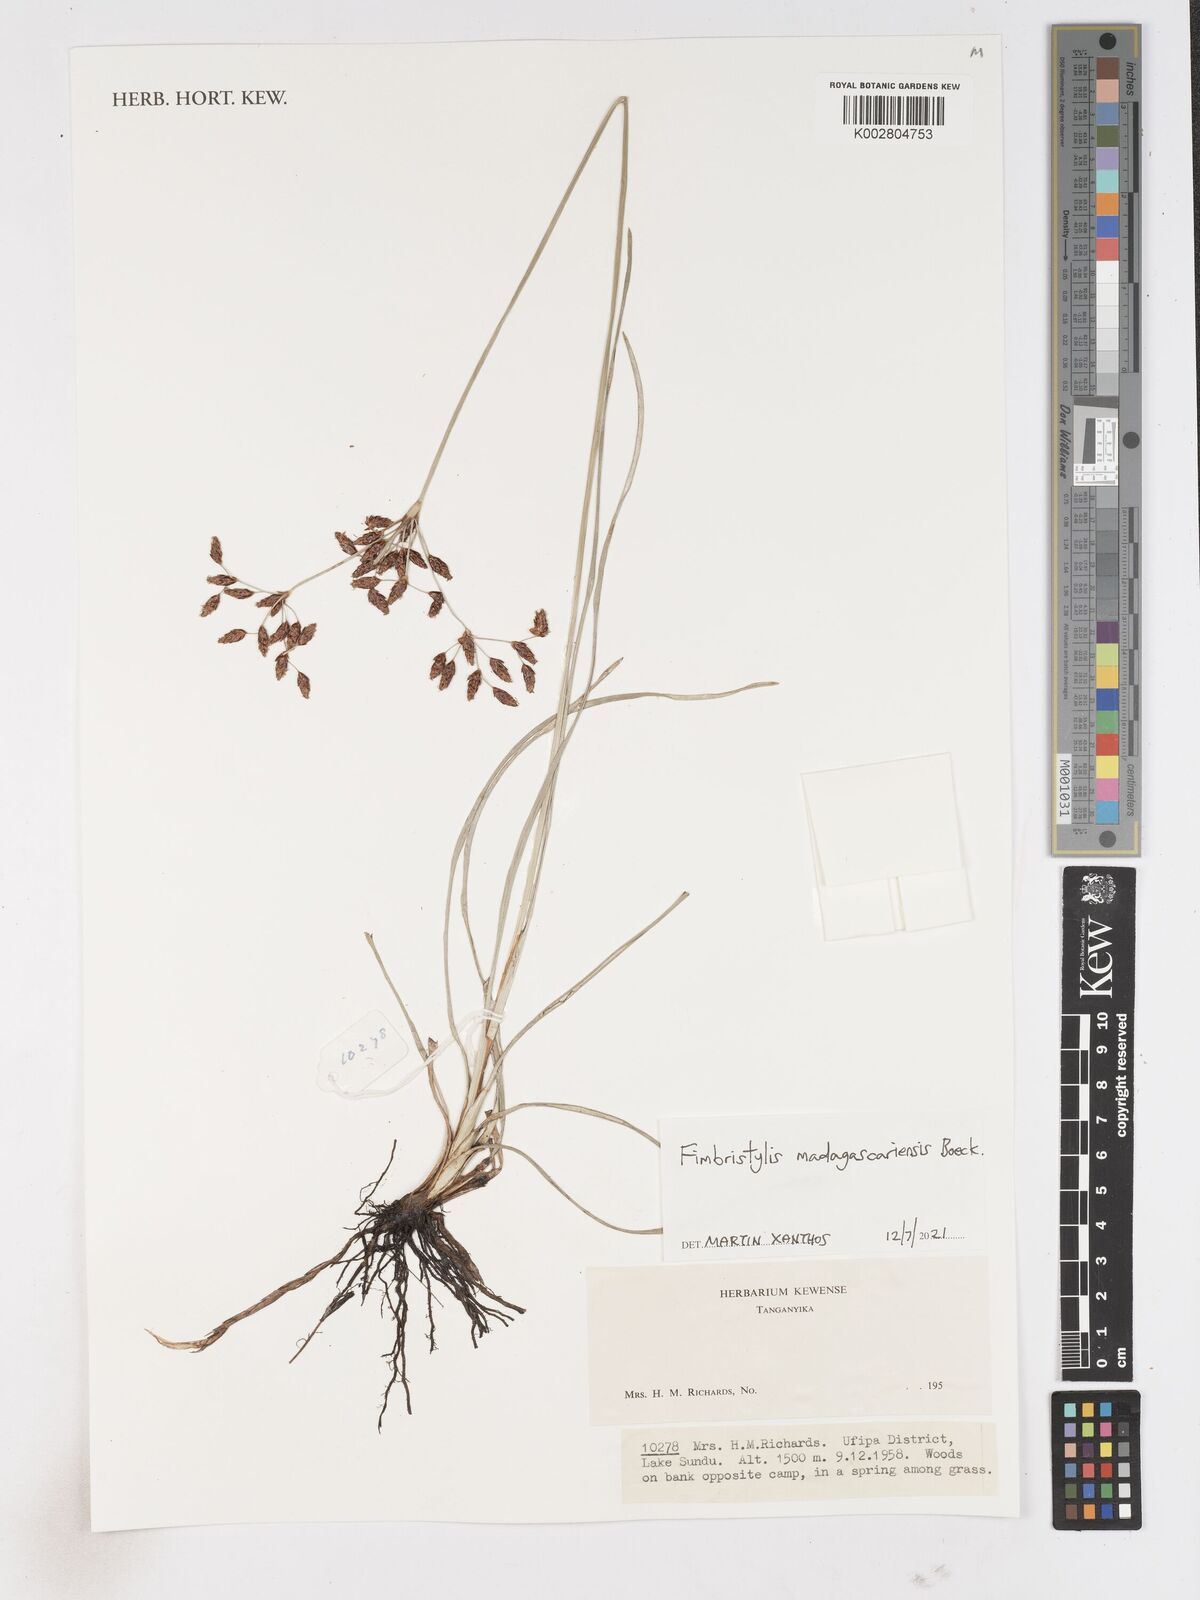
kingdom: Plantae
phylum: Tracheophyta
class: Liliopsida
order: Poales
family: Cyperaceae
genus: Fimbristylis
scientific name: Fimbristylis madagascariensis
